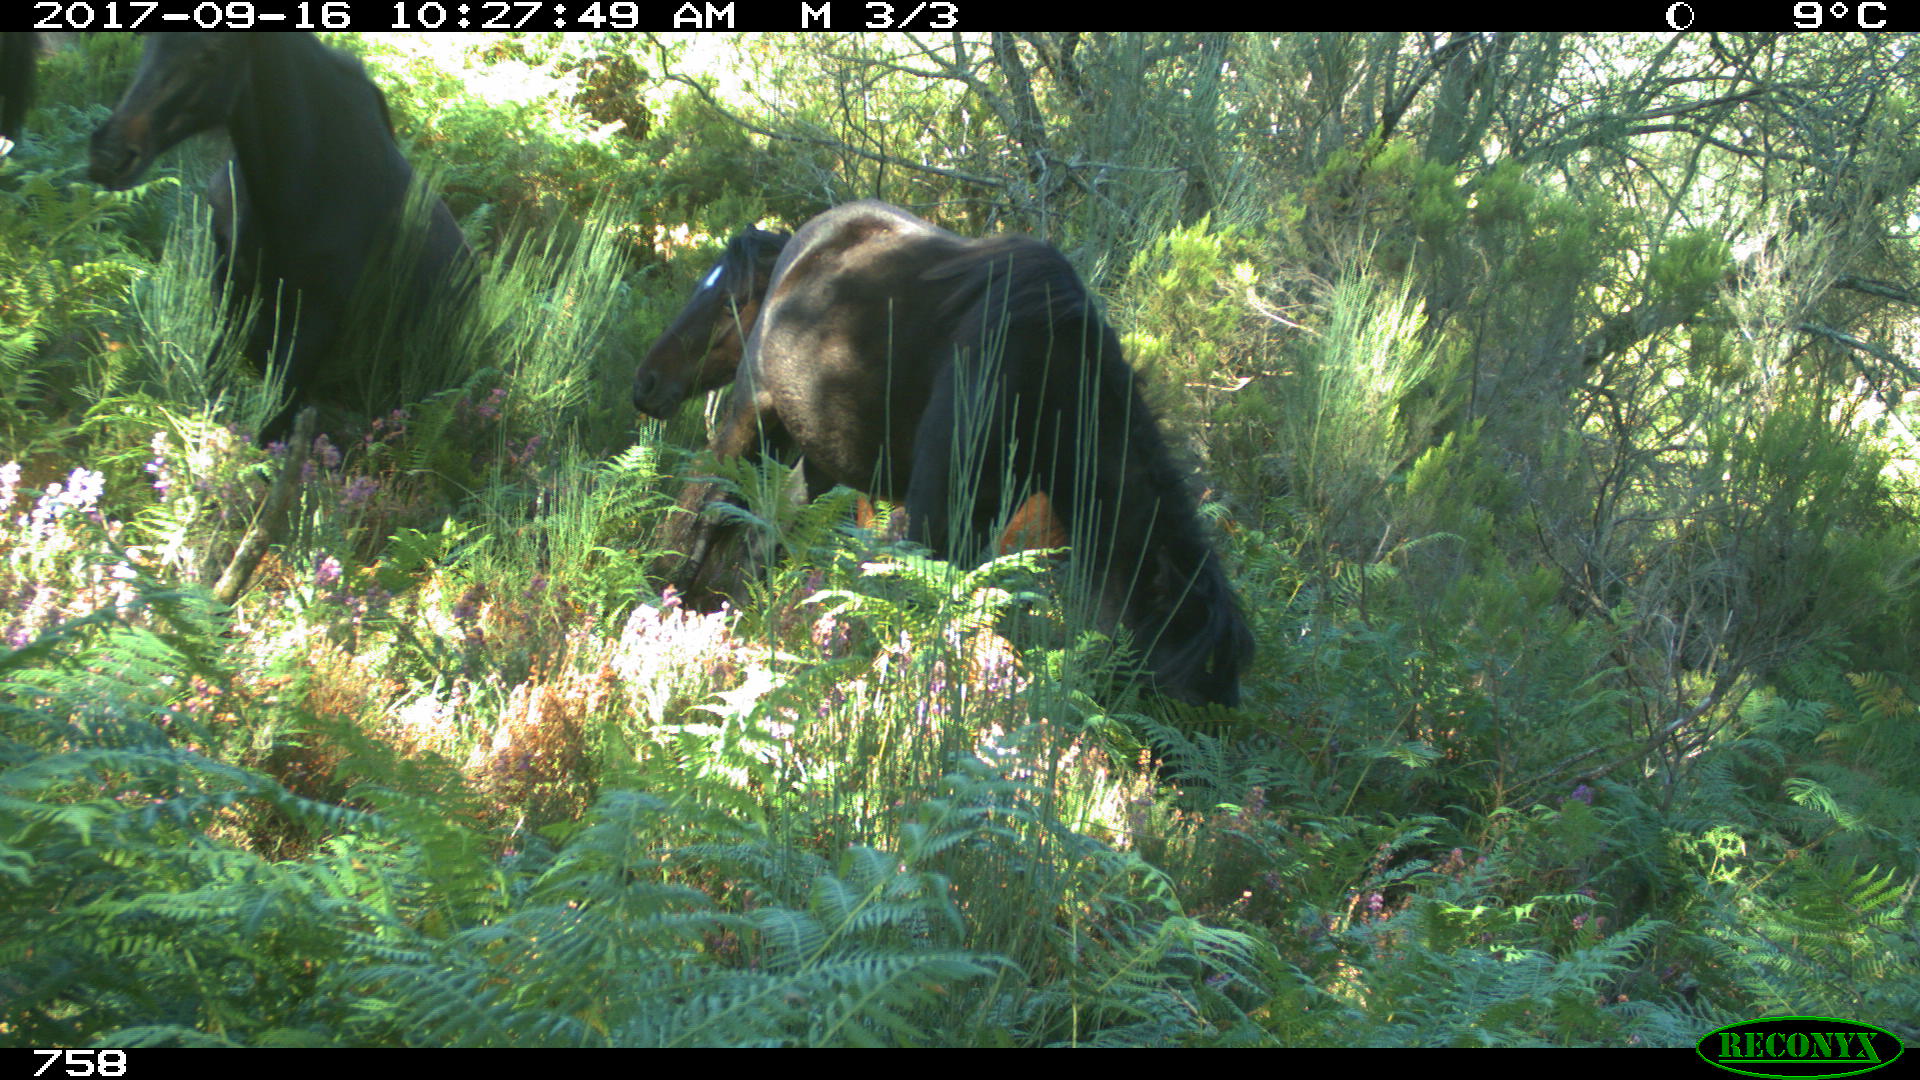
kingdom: Animalia
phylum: Chordata
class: Mammalia
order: Perissodactyla
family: Equidae
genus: Equus
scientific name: Equus caballus
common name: Horse
